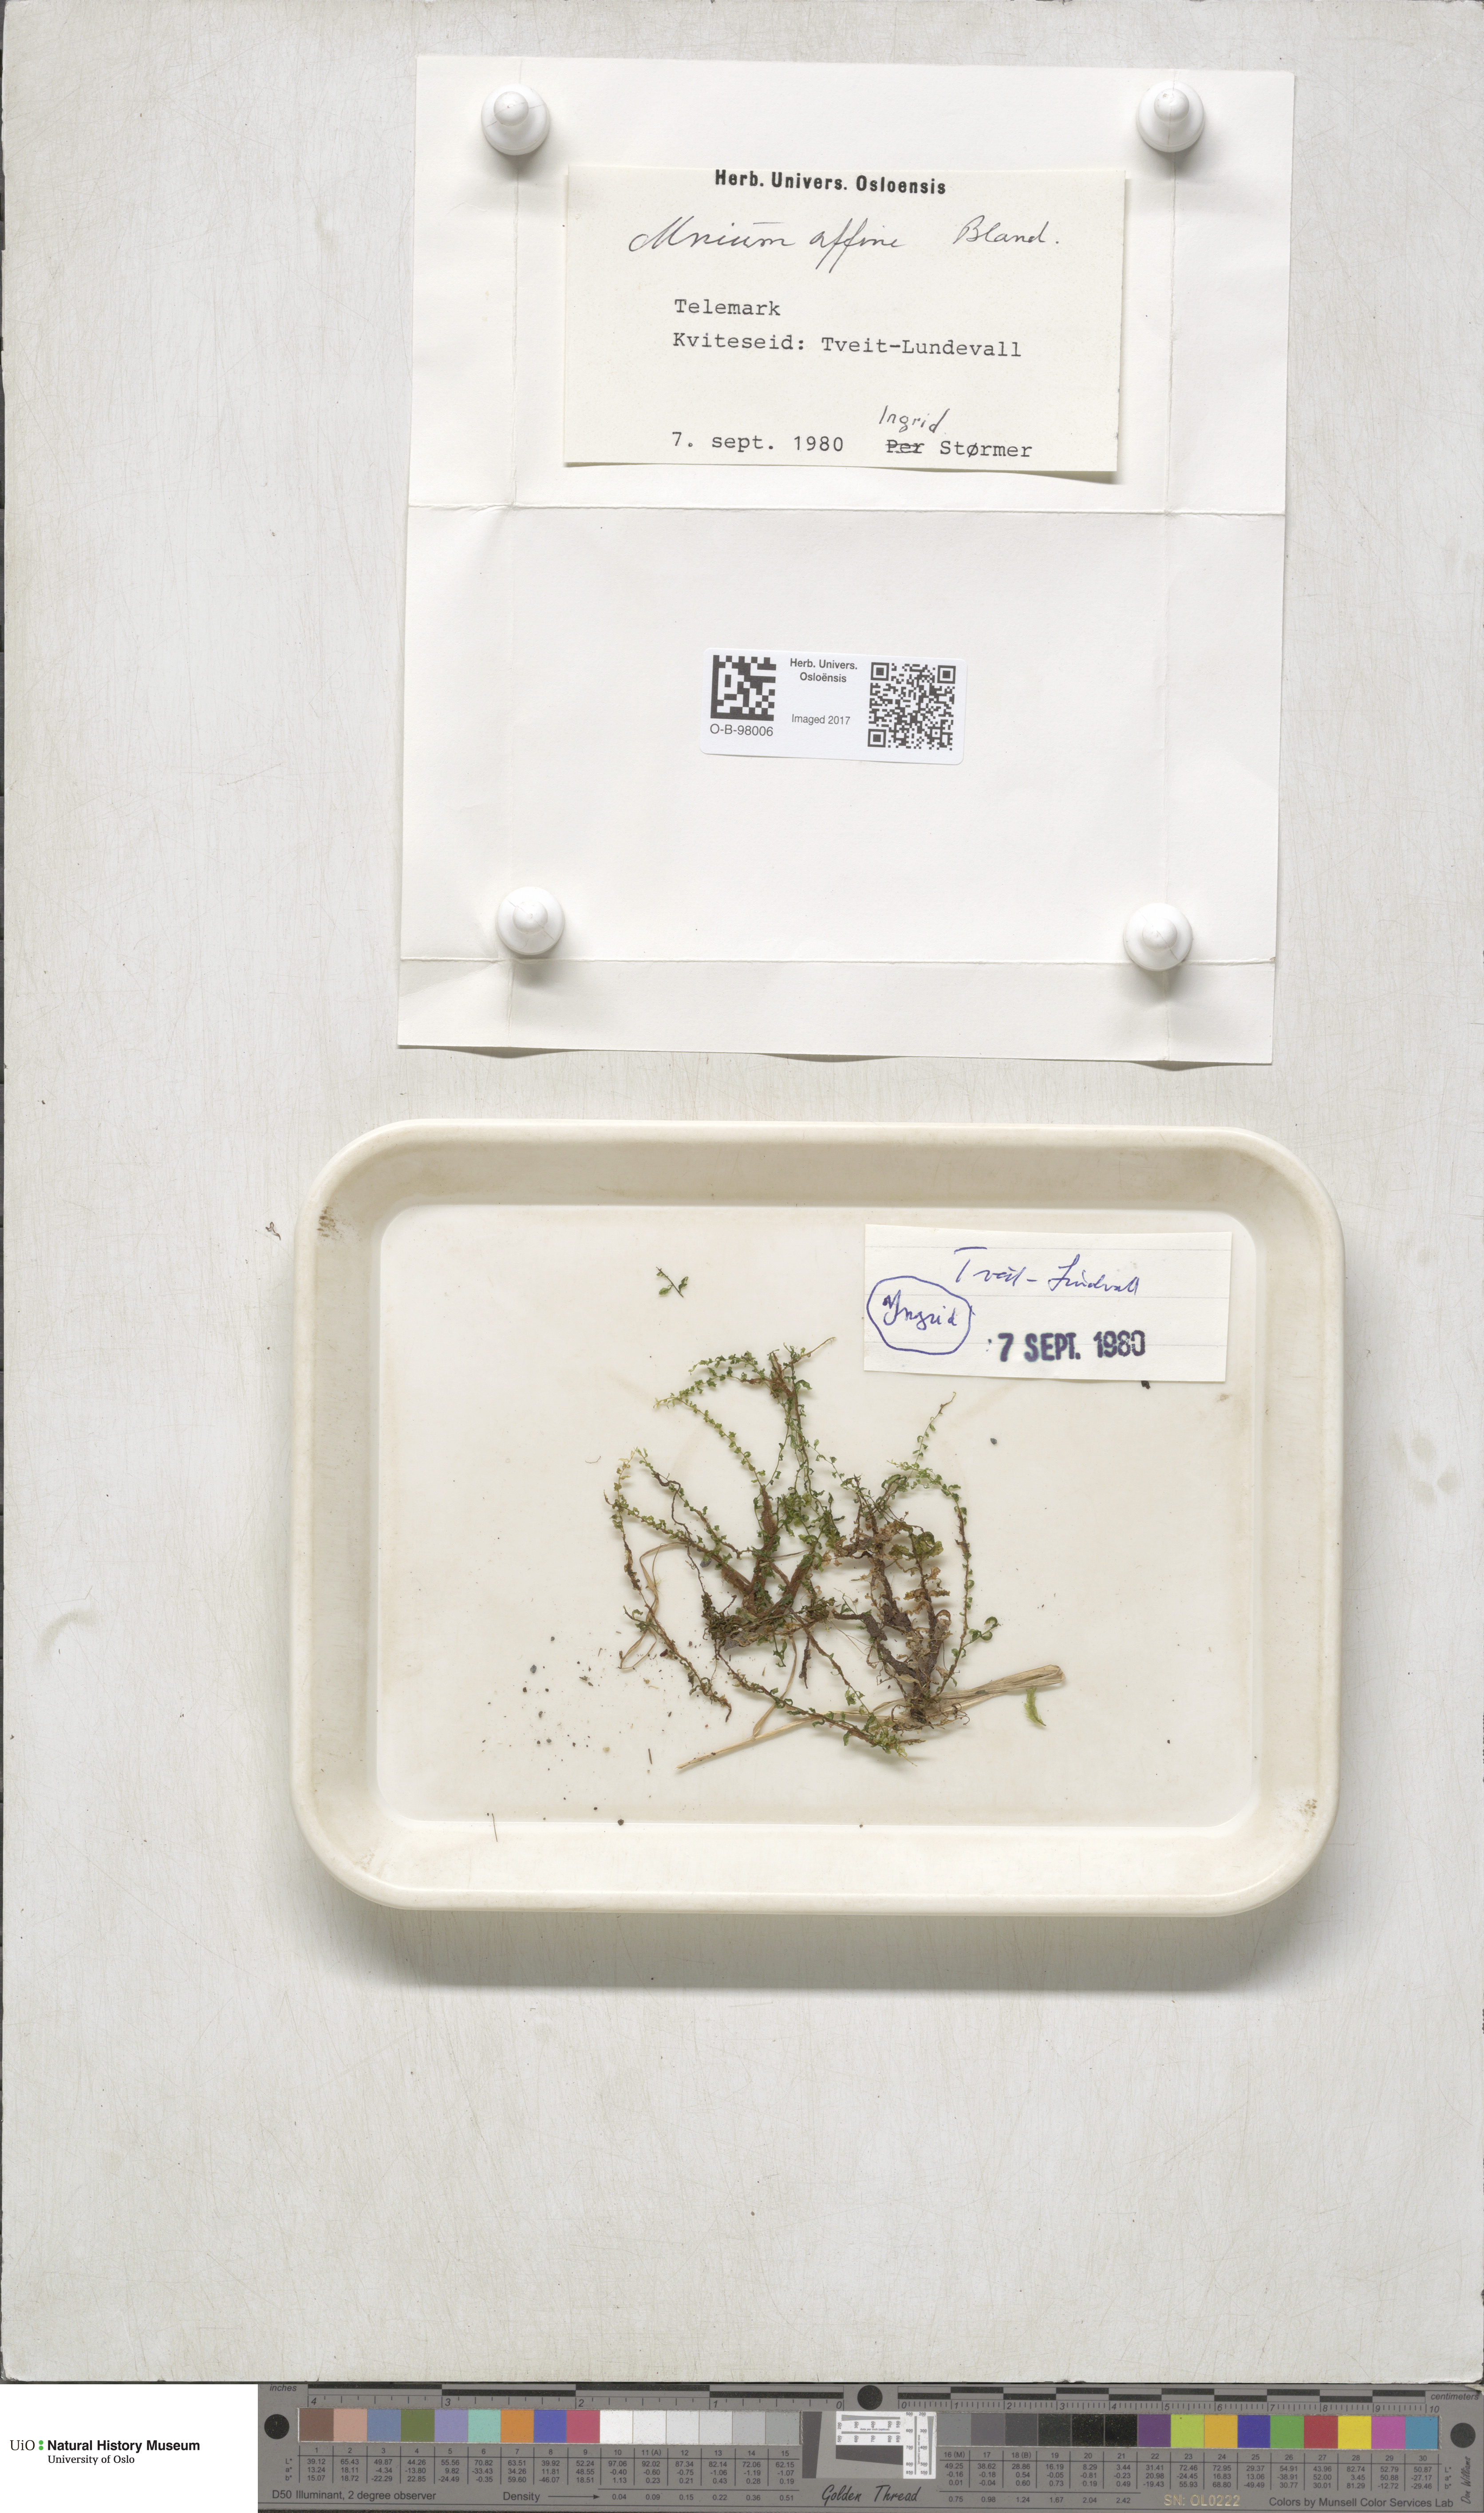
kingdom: Plantae
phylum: Bryophyta
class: Bryopsida
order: Bryales
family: Mniaceae
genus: Plagiomnium
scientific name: Plagiomnium affine
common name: Many-fruited thyme-moss
